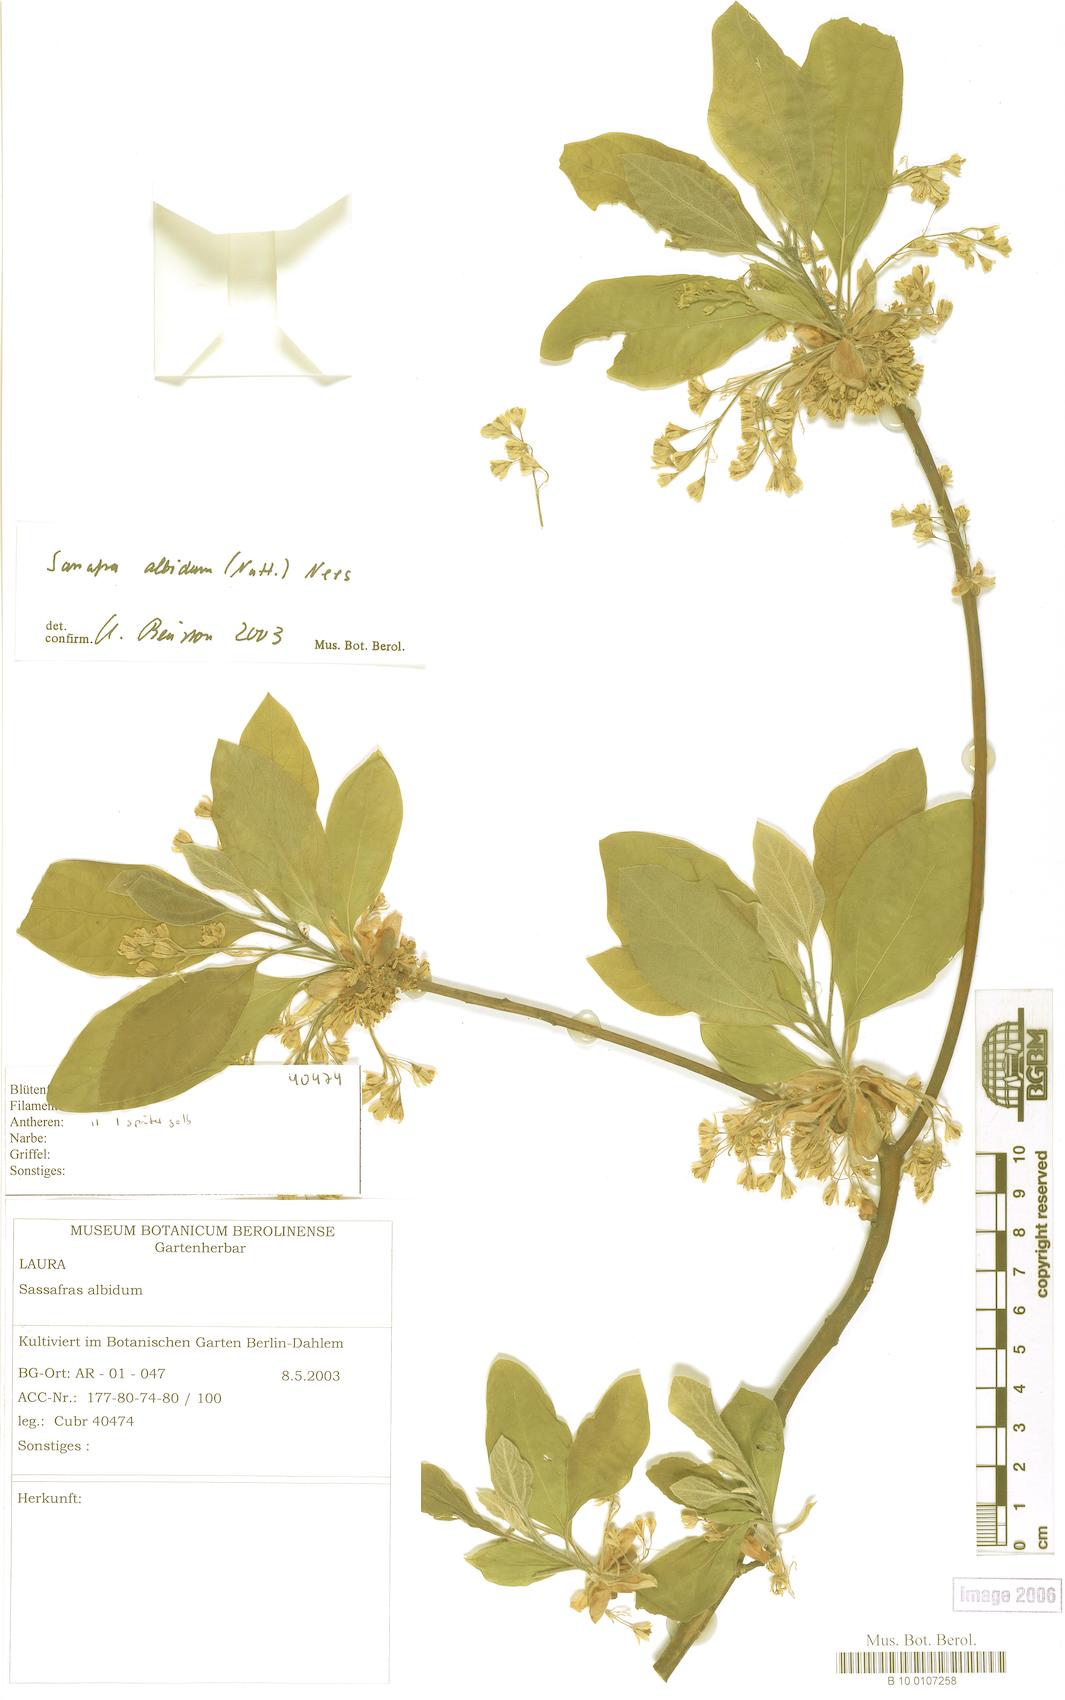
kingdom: Plantae
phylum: Tracheophyta
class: Magnoliopsida
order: Laurales
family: Lauraceae
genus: Sassafras
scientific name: Sassafras albidum
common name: Sassafras
